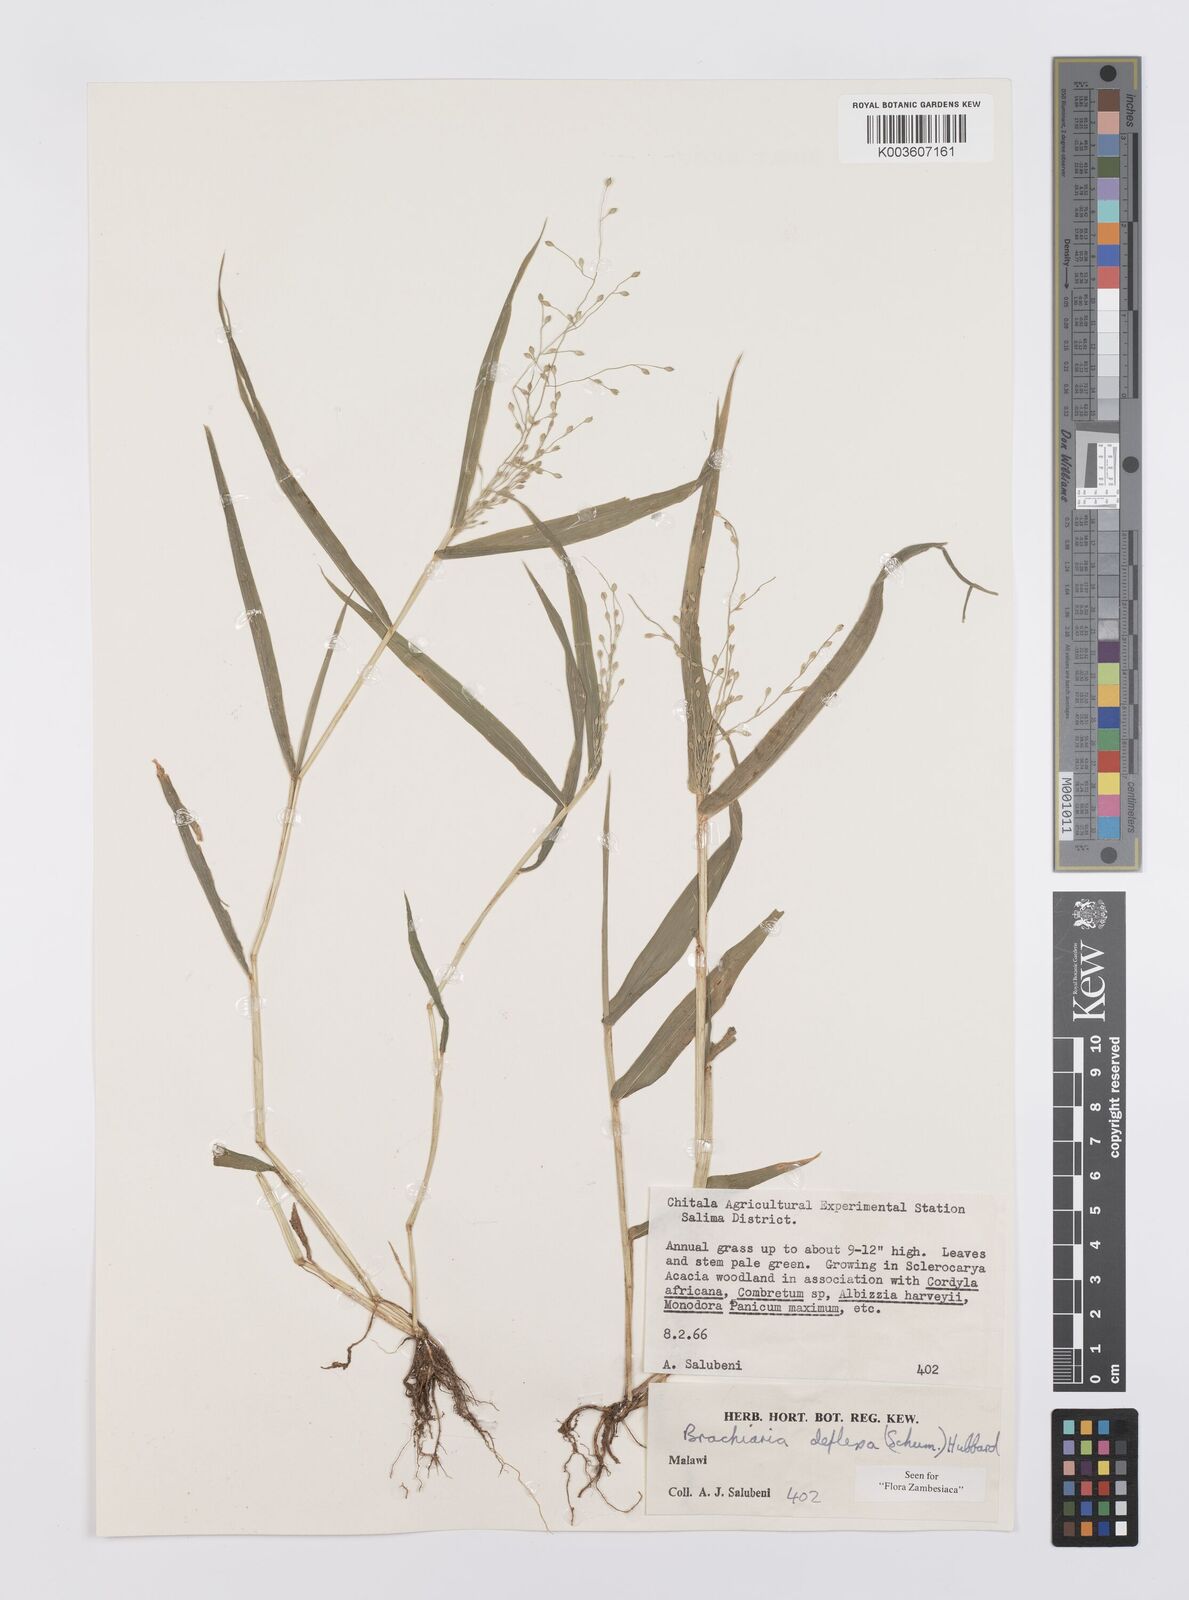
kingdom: Plantae
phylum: Tracheophyta
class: Liliopsida
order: Poales
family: Poaceae
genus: Urochloa
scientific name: Urochloa deflexa
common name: Guinea millet
